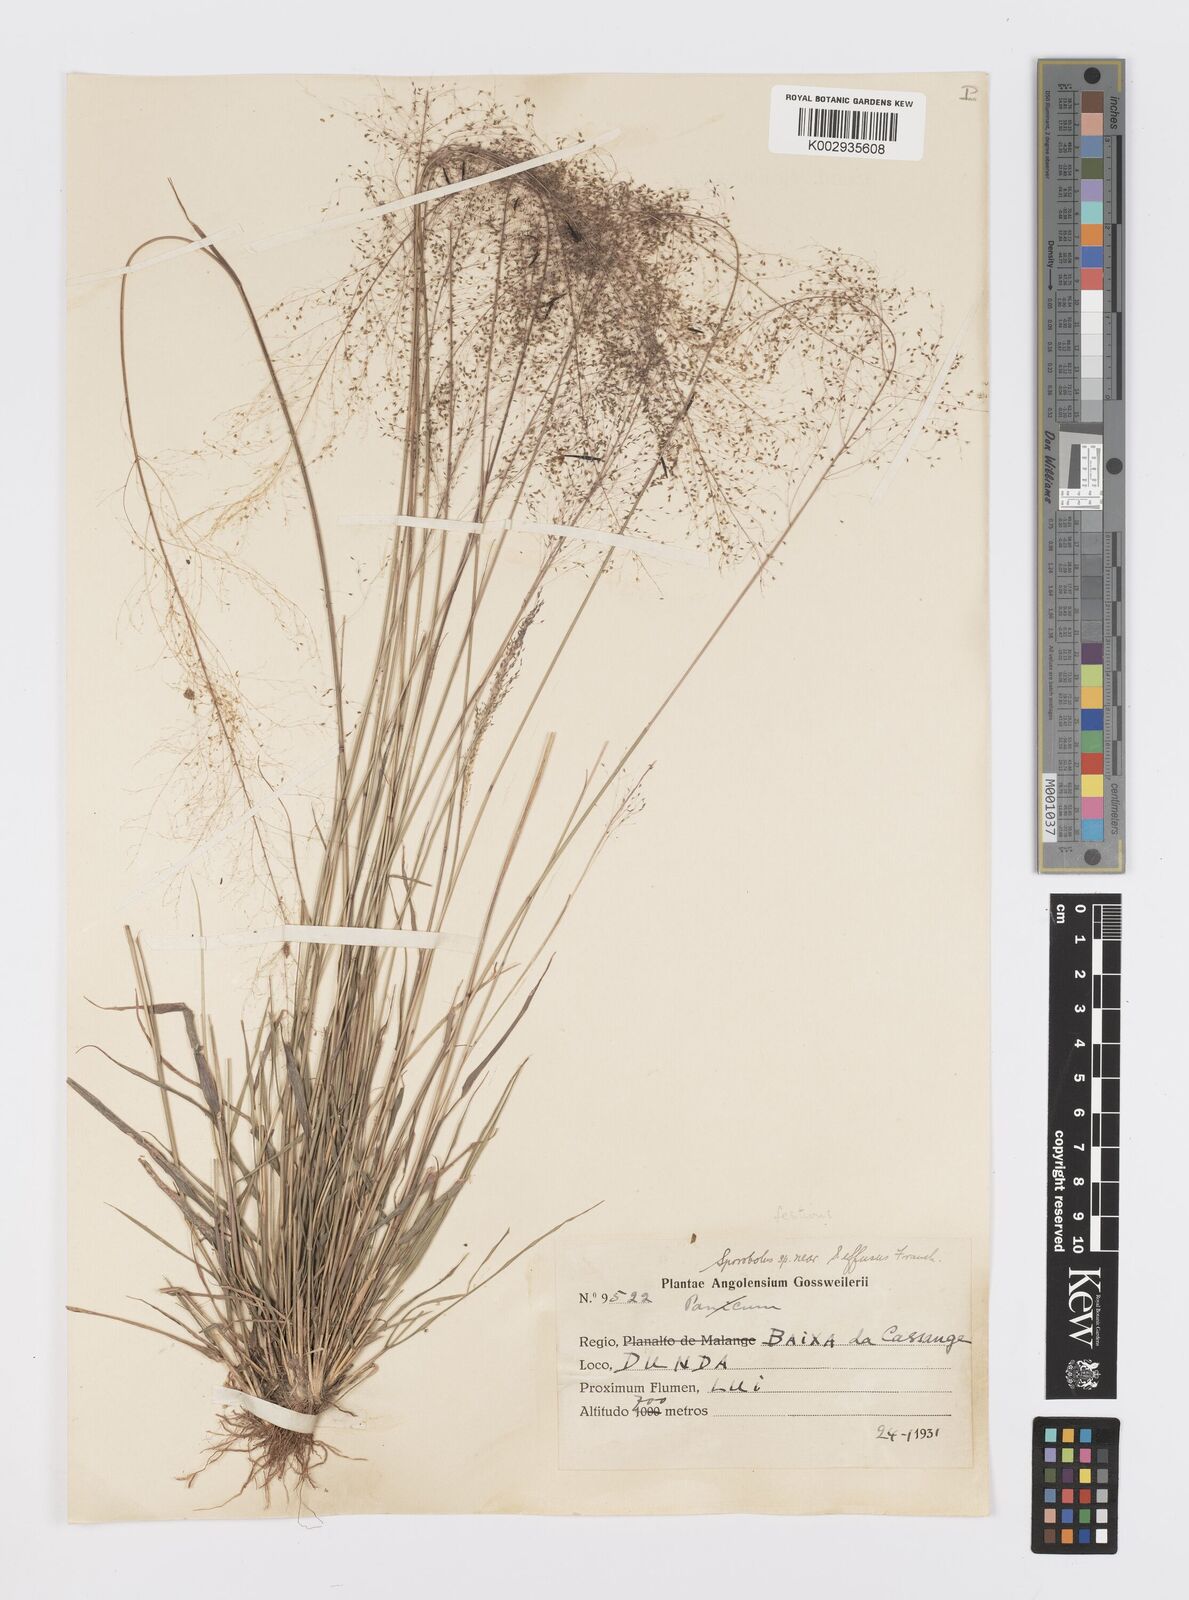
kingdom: Plantae
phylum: Tracheophyta
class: Liliopsida
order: Poales
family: Poaceae
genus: Sporobolus
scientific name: Sporobolus festivus
